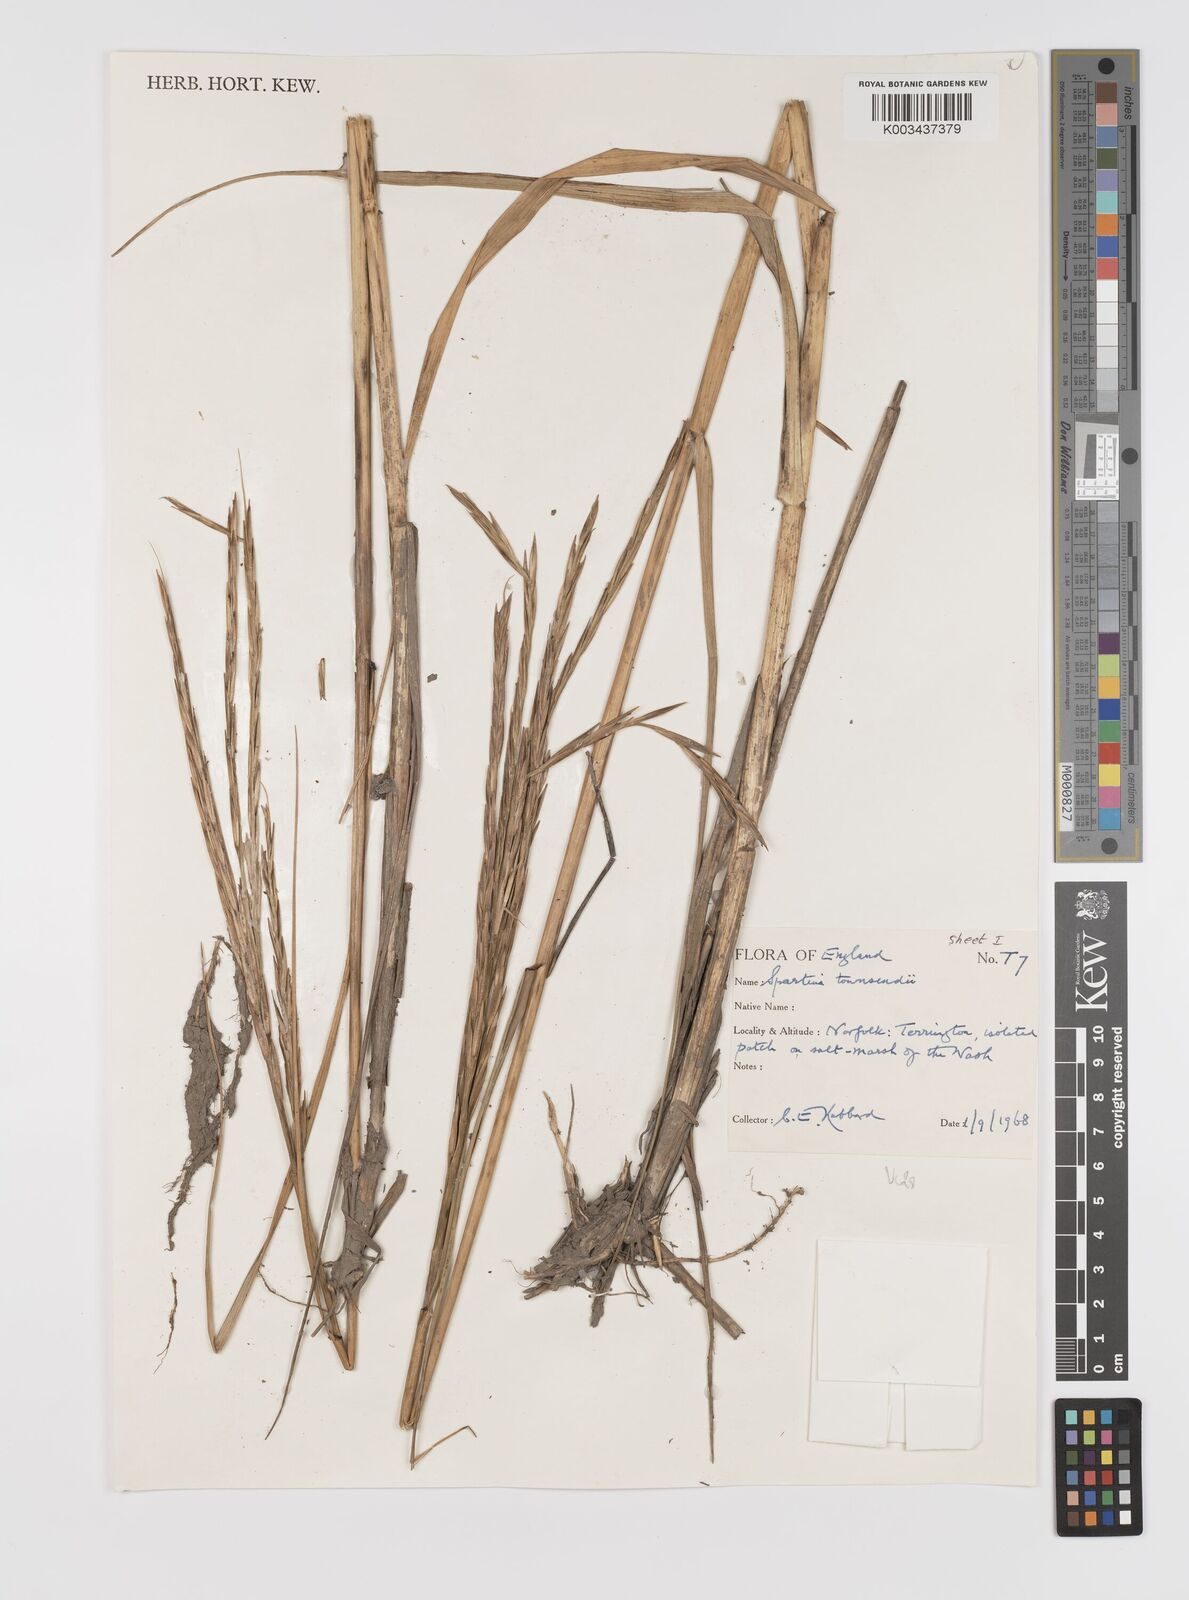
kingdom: Plantae
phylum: Tracheophyta
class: Liliopsida
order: Poales
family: Poaceae
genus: Sporobolus
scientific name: Sporobolus townsendii
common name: Townsend's cordgrass
